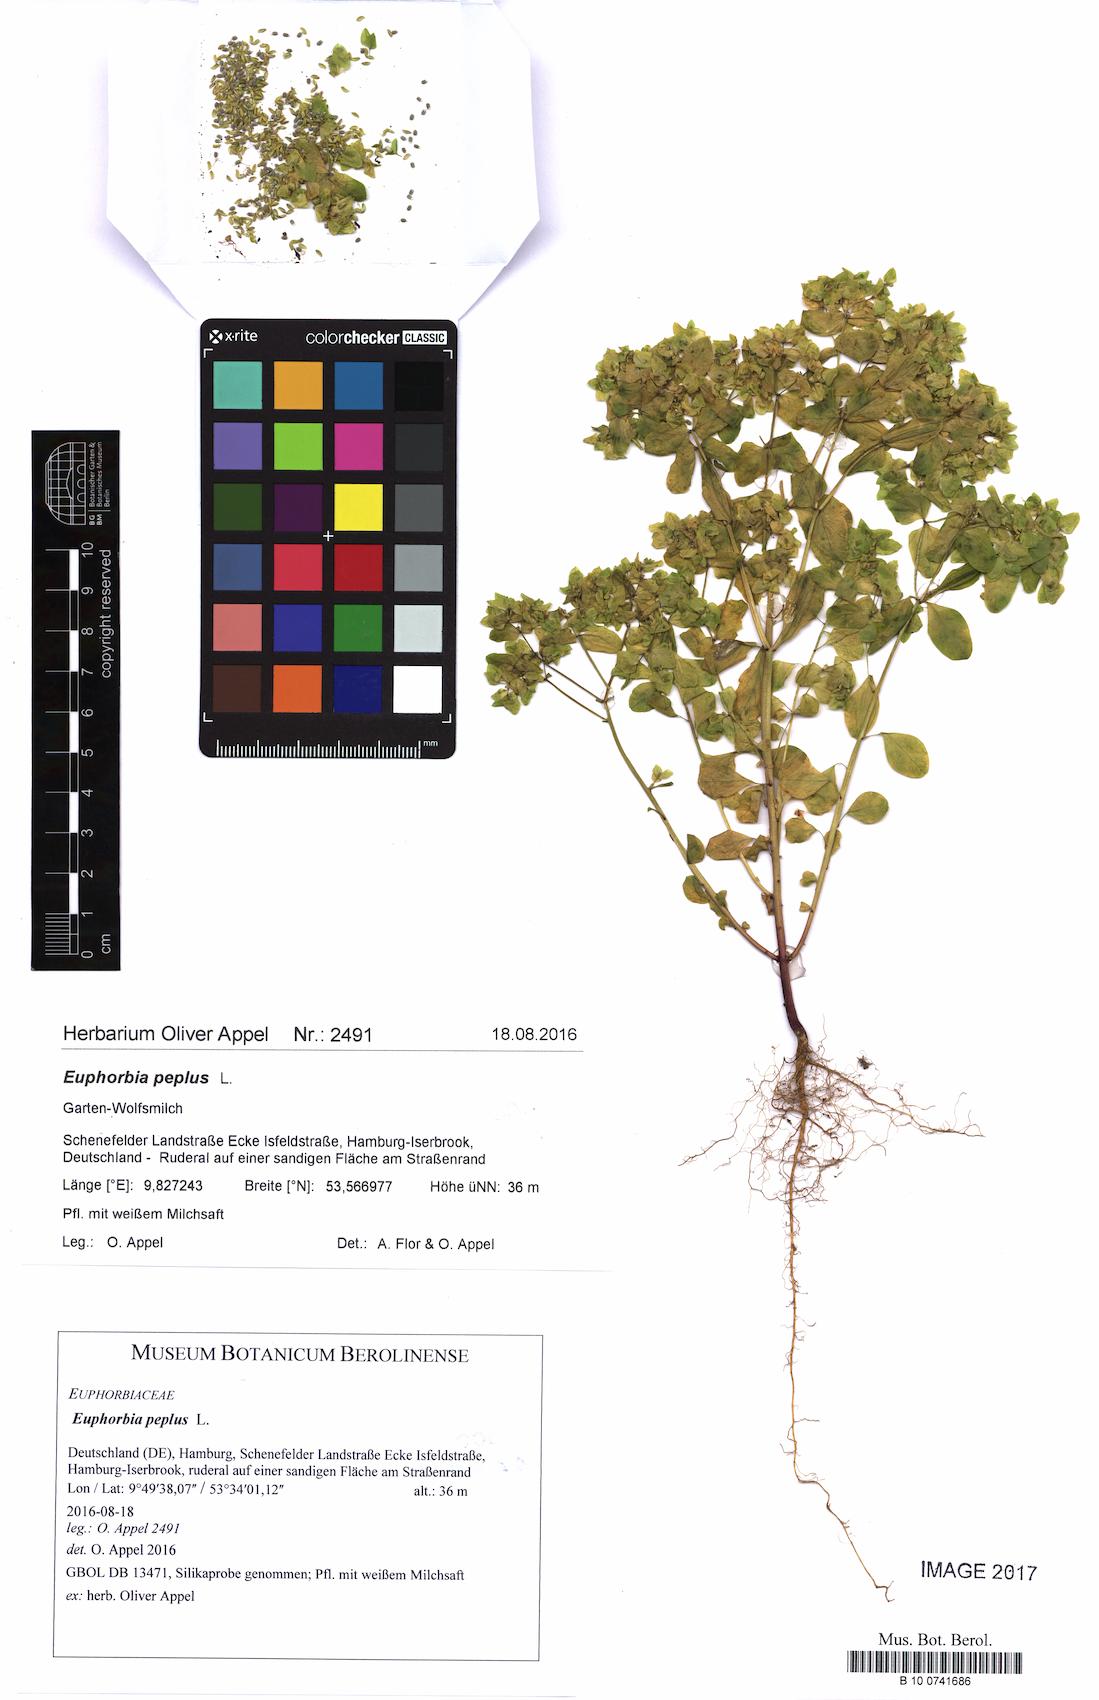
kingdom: Plantae
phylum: Tracheophyta
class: Magnoliopsida
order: Malpighiales
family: Euphorbiaceae
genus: Euphorbia
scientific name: Euphorbia peplus
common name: Petty spurge
